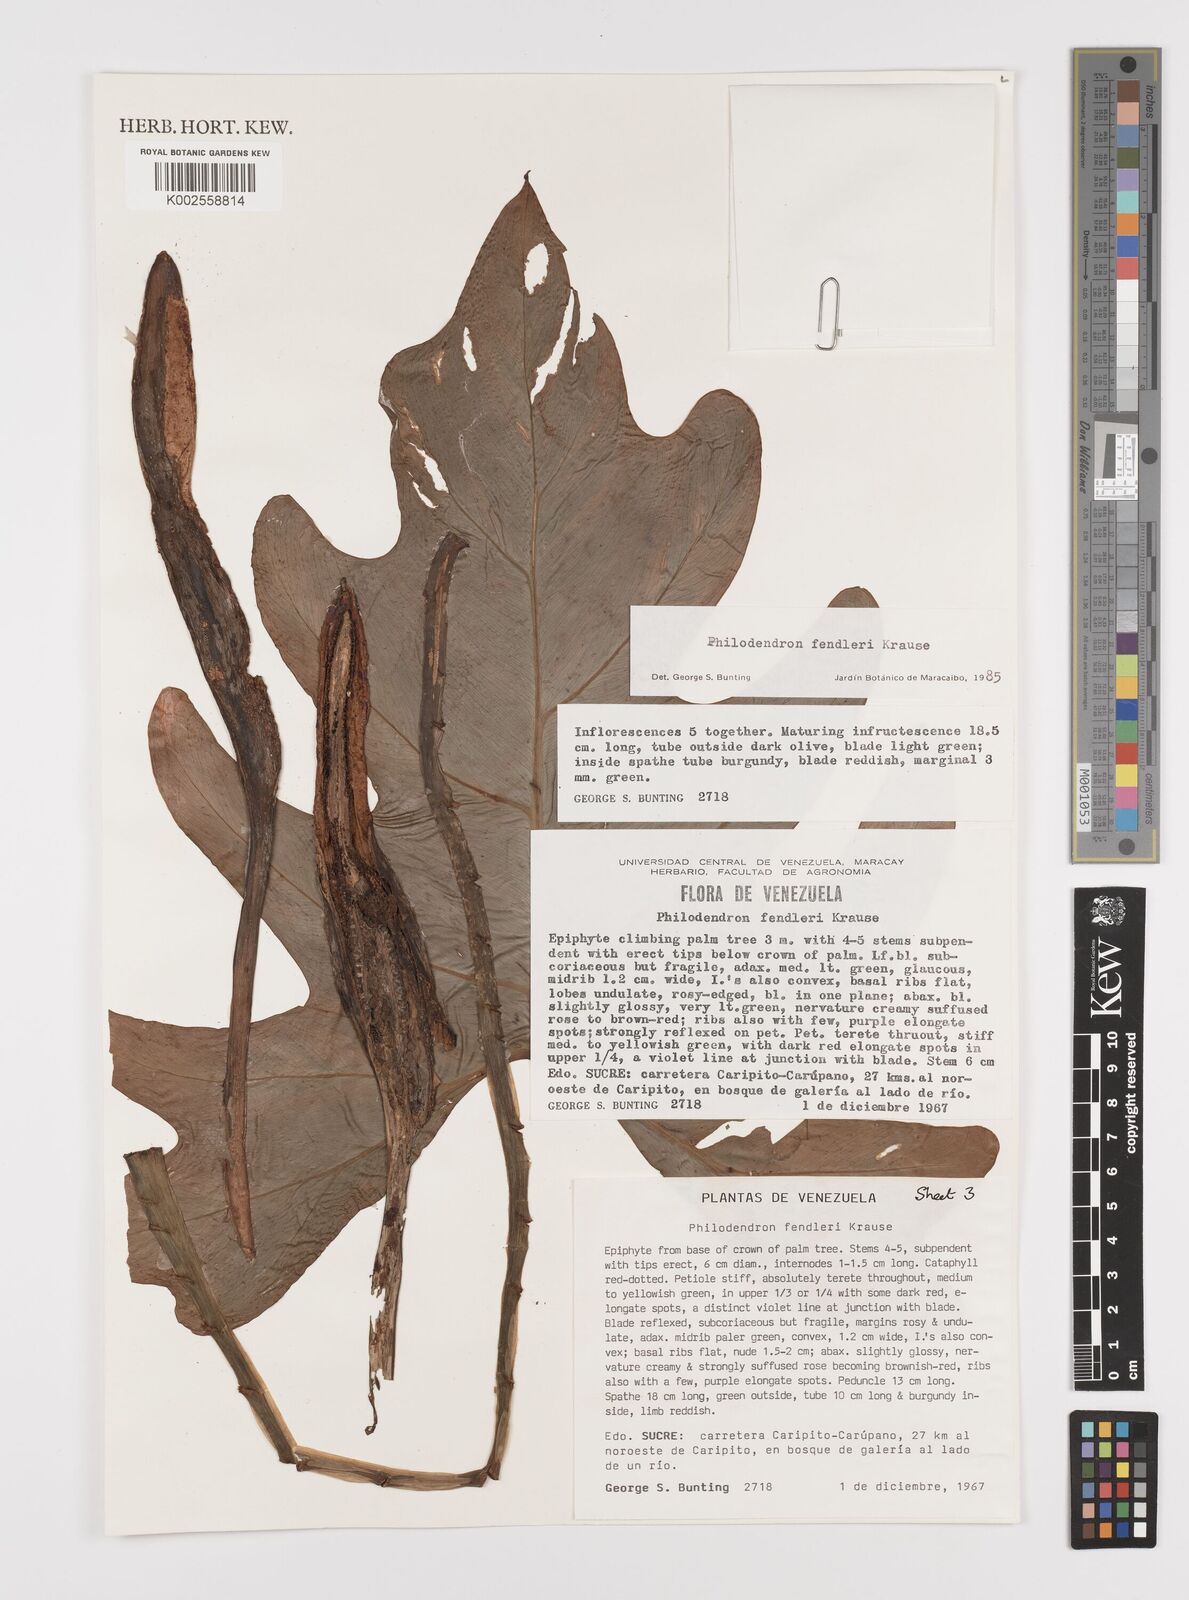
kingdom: Plantae
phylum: Tracheophyta
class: Liliopsida
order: Alismatales
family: Araceae
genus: Philodendron
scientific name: Philodendron fendleri
